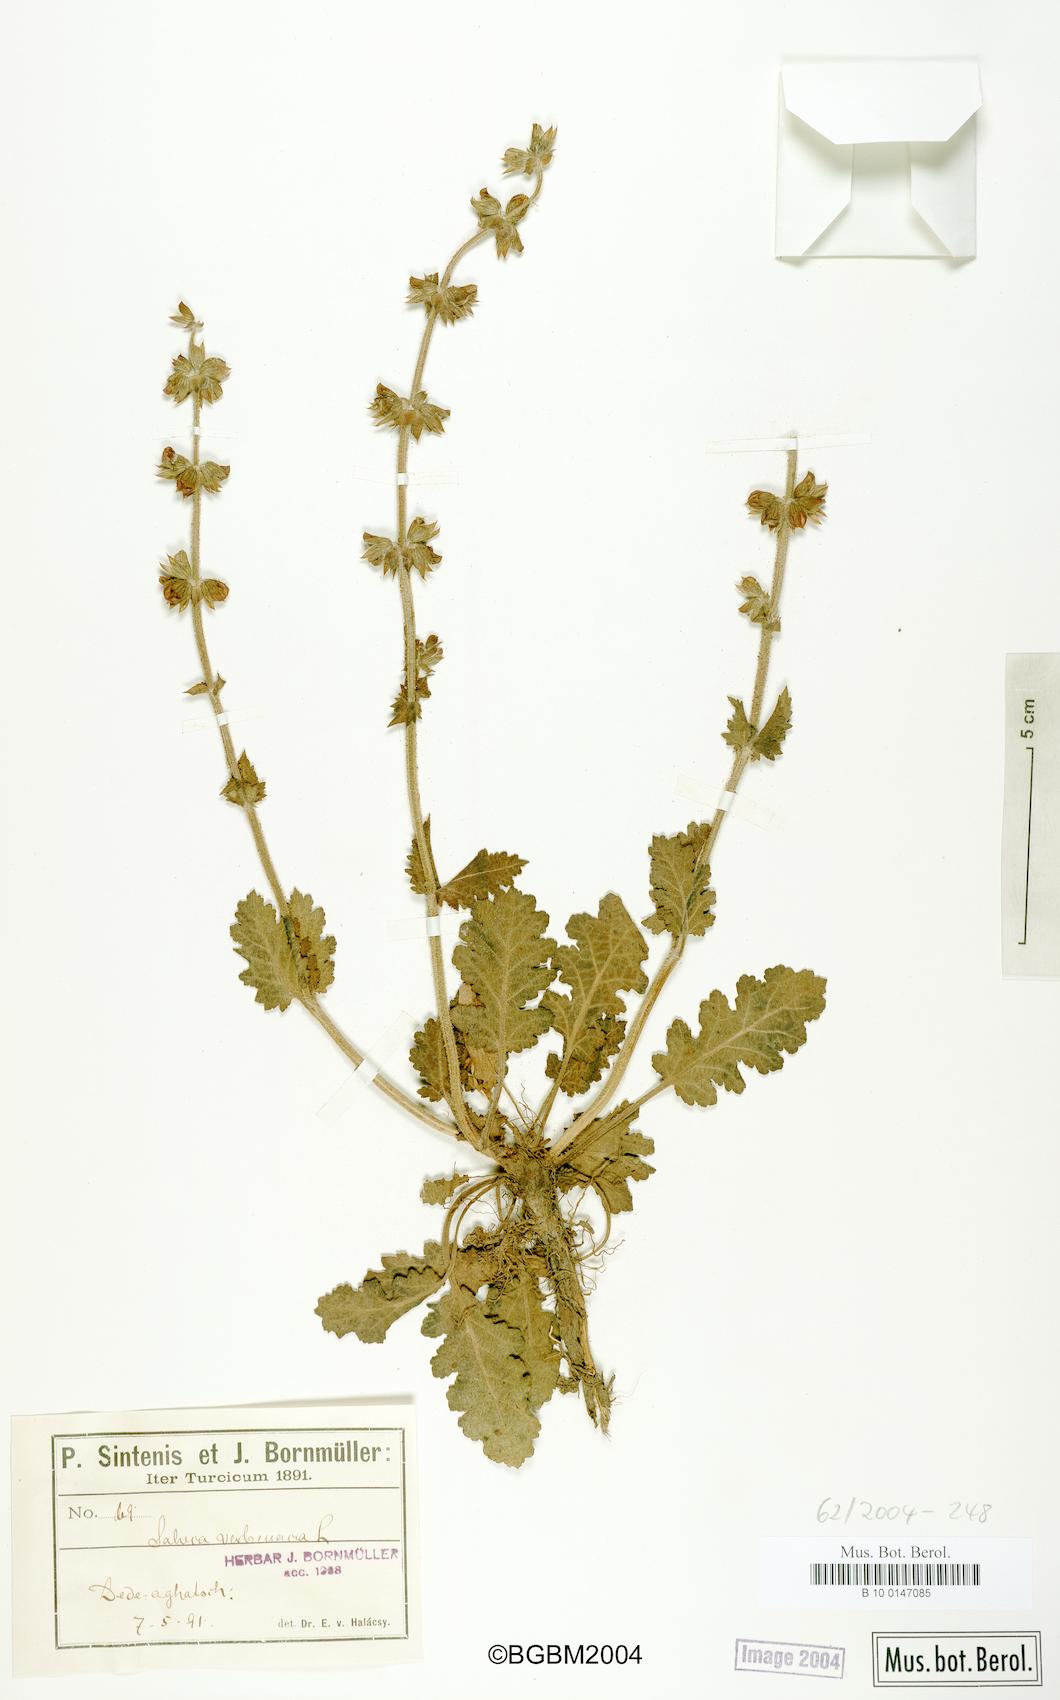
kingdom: Plantae
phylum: Tracheophyta
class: Magnoliopsida
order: Lamiales
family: Lamiaceae
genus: Salvia
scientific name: Salvia verbenaca
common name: Wild clary
